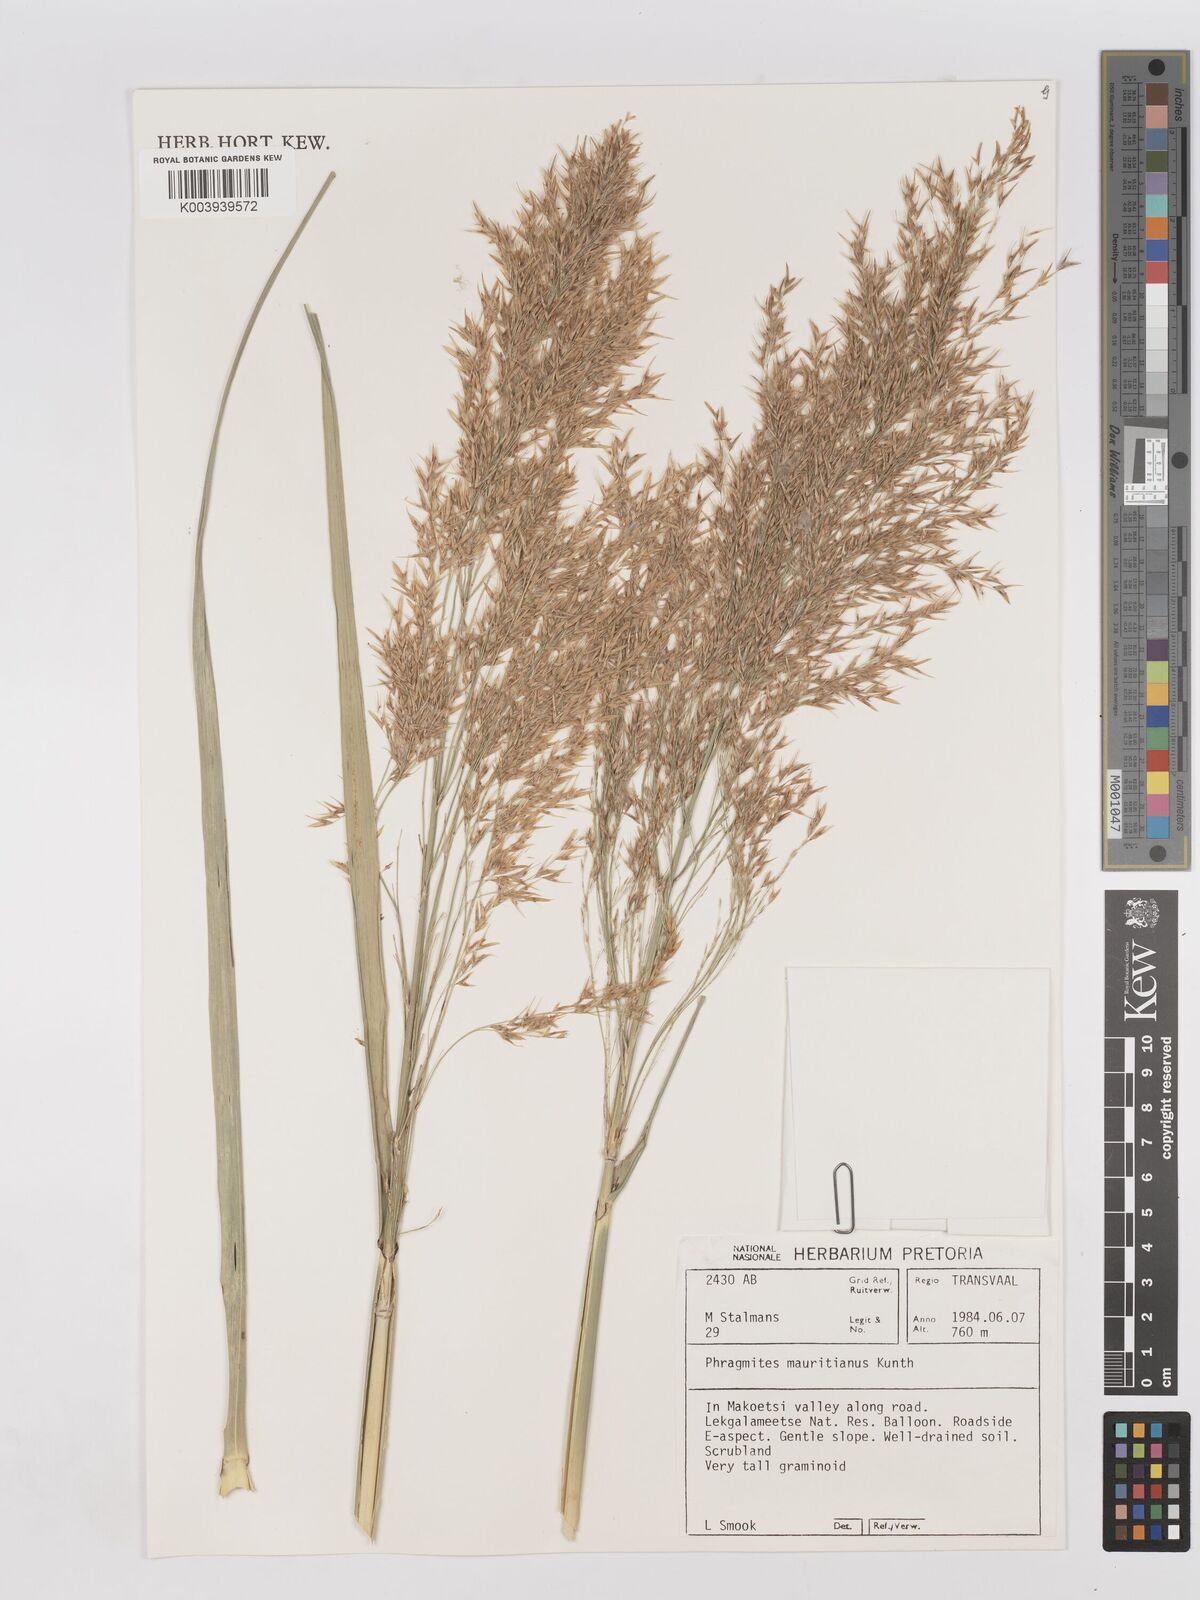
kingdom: Plantae
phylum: Tracheophyta
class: Liliopsida
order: Poales
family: Poaceae
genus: Phragmites
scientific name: Phragmites mauritianus
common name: Reed grass
